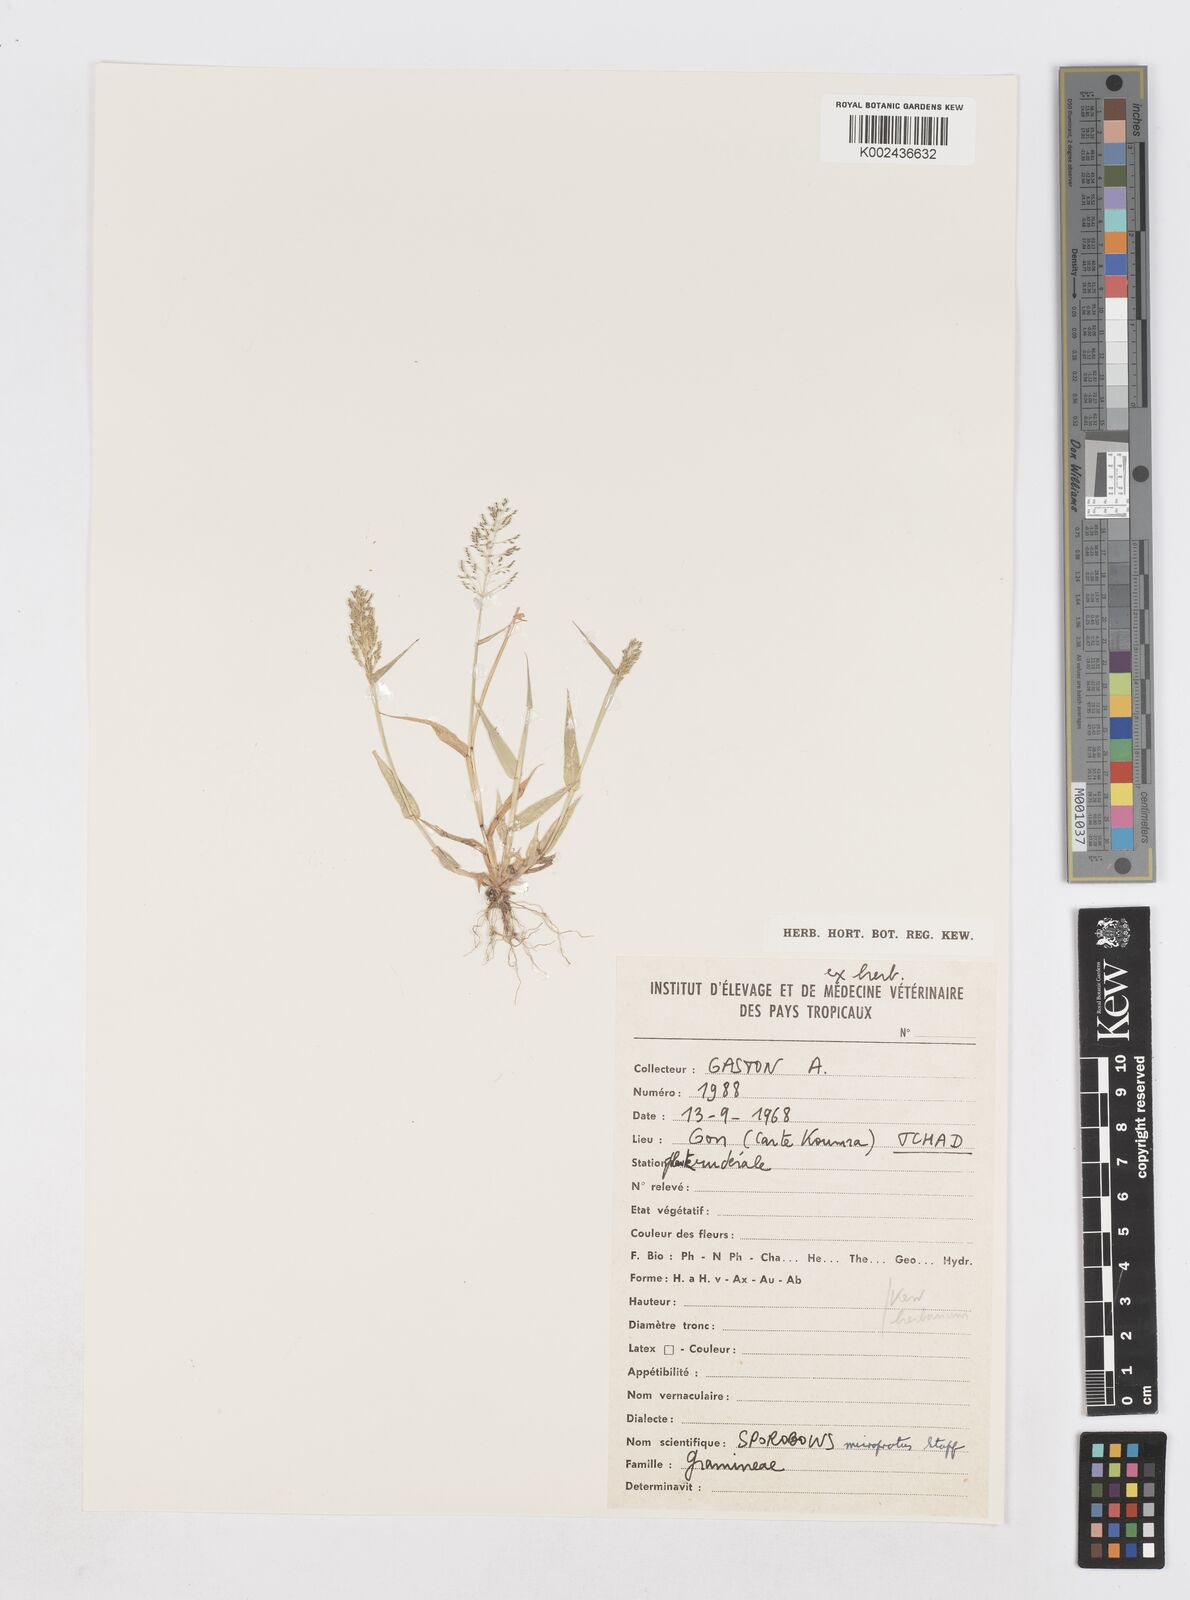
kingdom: Plantae
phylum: Tracheophyta
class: Liliopsida
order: Poales
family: Poaceae
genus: Sporobolus
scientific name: Sporobolus microprotus
